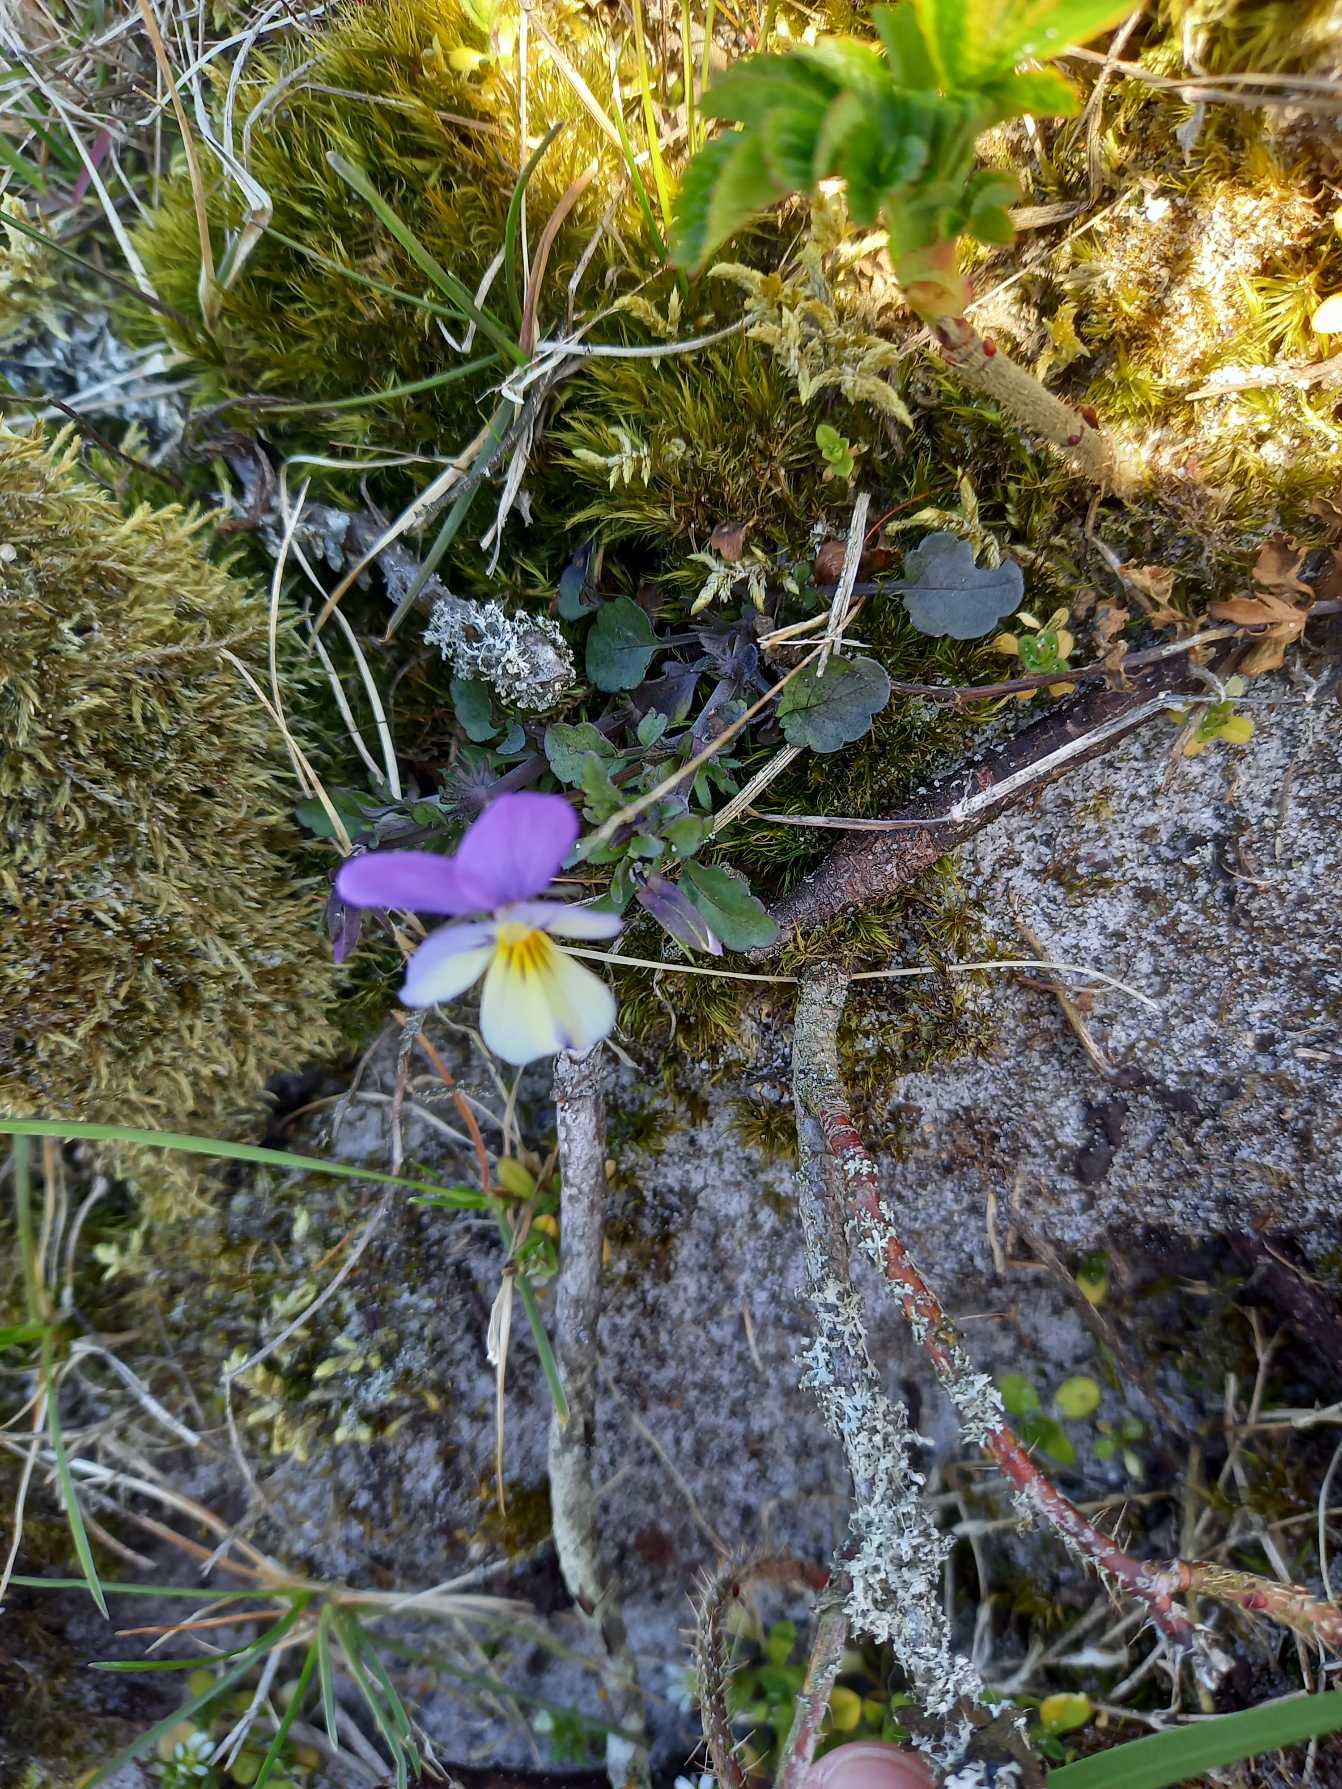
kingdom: Plantae
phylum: Tracheophyta
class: Magnoliopsida
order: Malpighiales
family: Violaceae
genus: Viola
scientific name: Viola tricolor
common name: Stedmoderblomst
